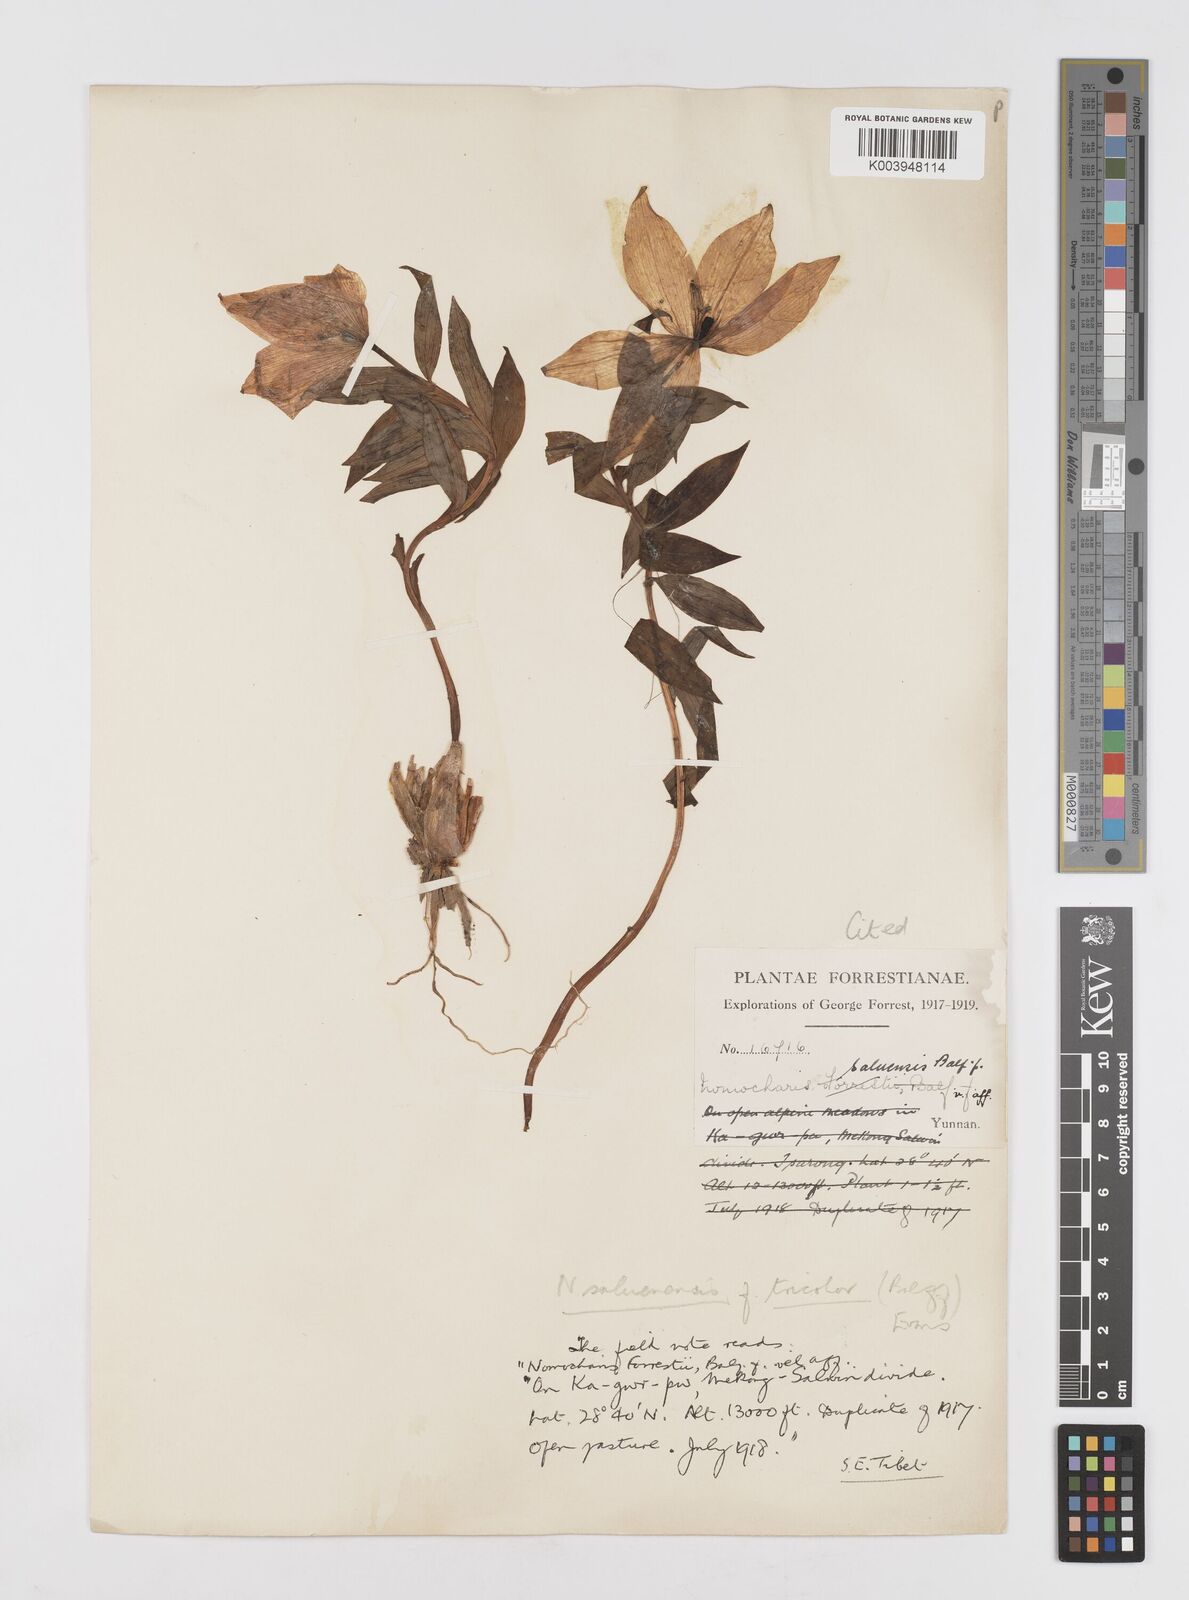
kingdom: Plantae
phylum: Tracheophyta
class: Liliopsida
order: Liliales
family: Liliaceae
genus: Lilium
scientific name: Lilium saluenense
